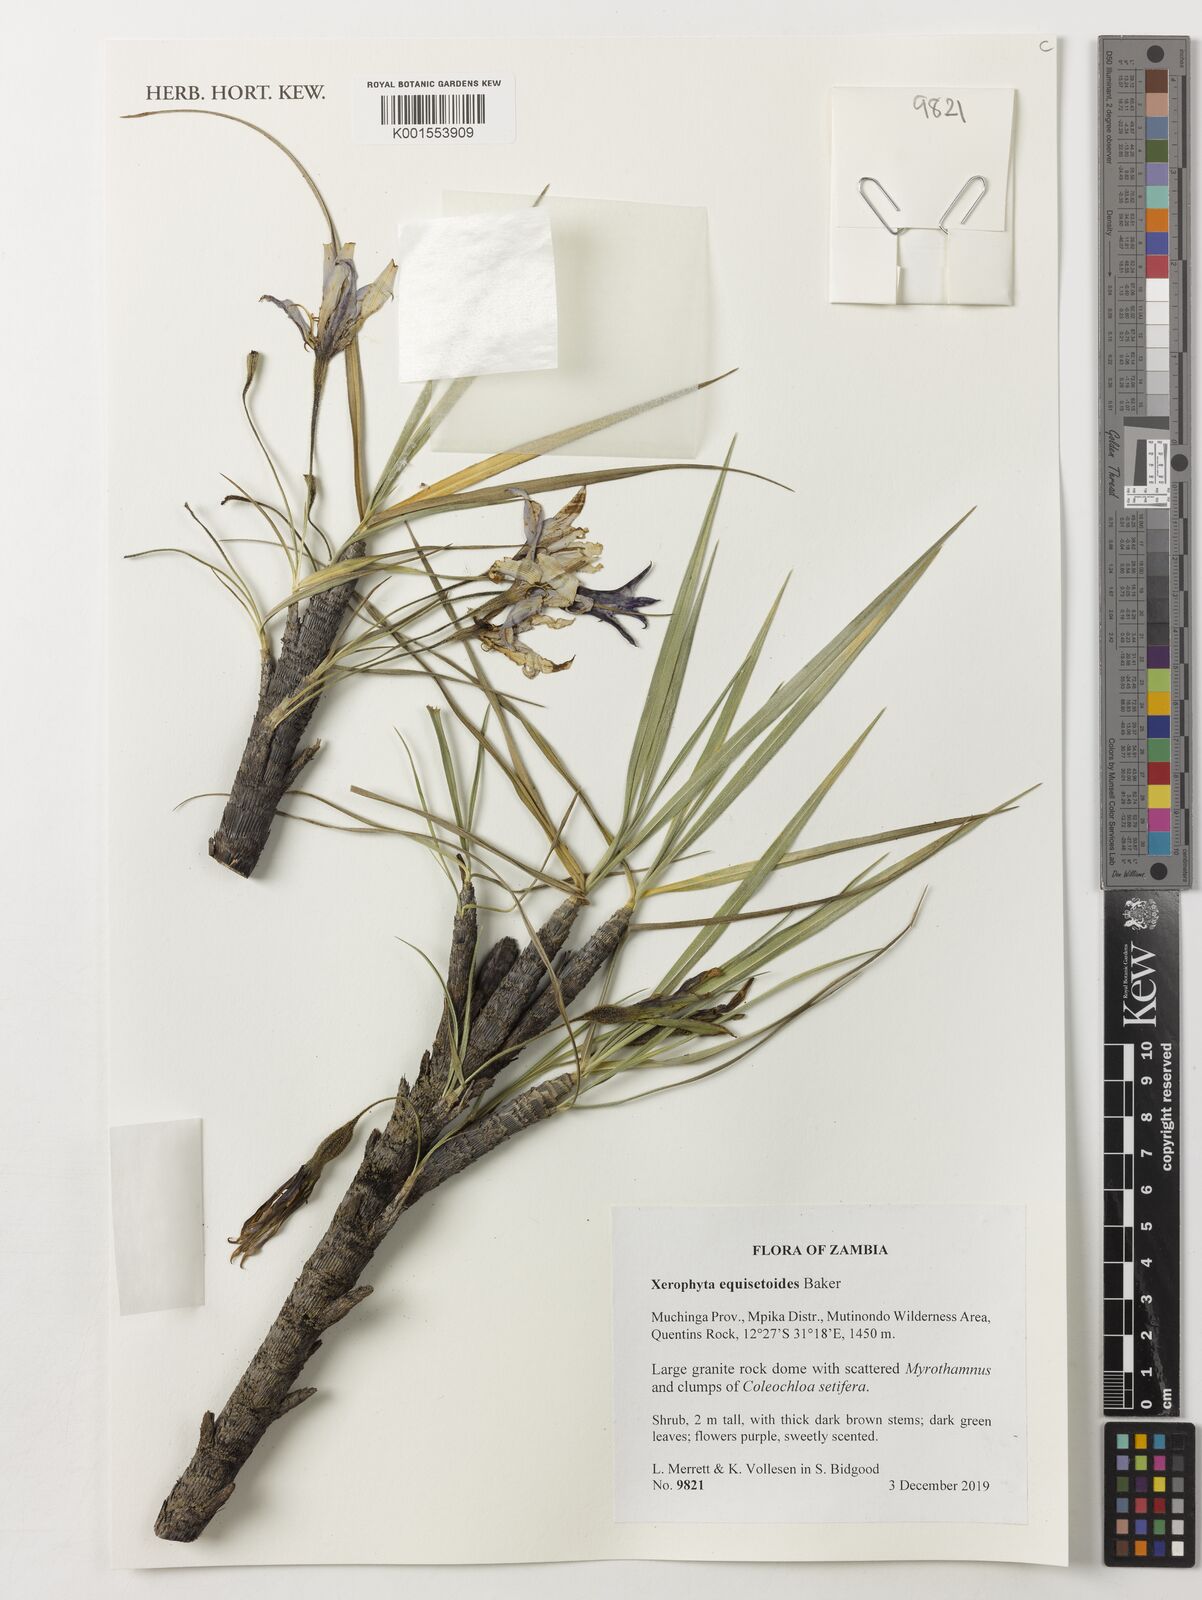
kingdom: Plantae
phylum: Tracheophyta
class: Liliopsida
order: Pandanales
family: Velloziaceae
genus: Xerophyta
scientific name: Xerophyta equisetoides
